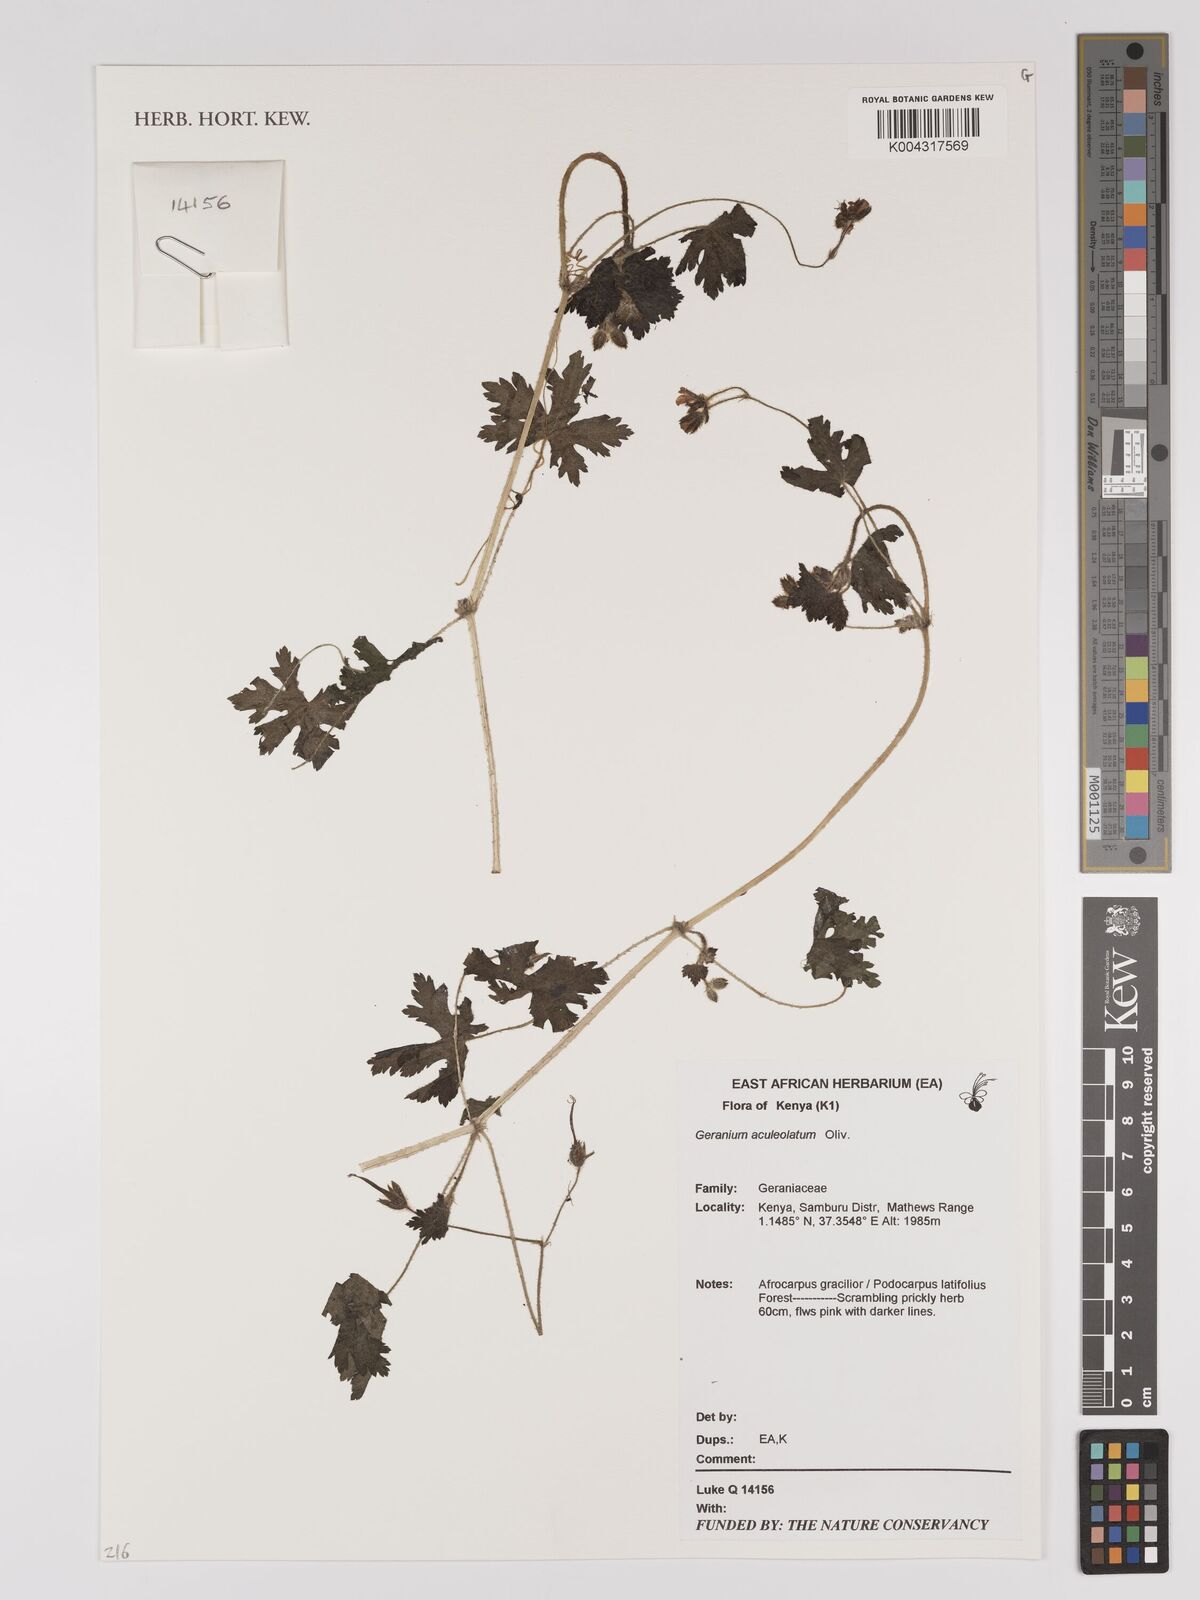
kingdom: Plantae
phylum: Tracheophyta
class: Magnoliopsida
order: Geraniales
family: Geraniaceae
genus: Geranium
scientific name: Geranium aculeolatum
